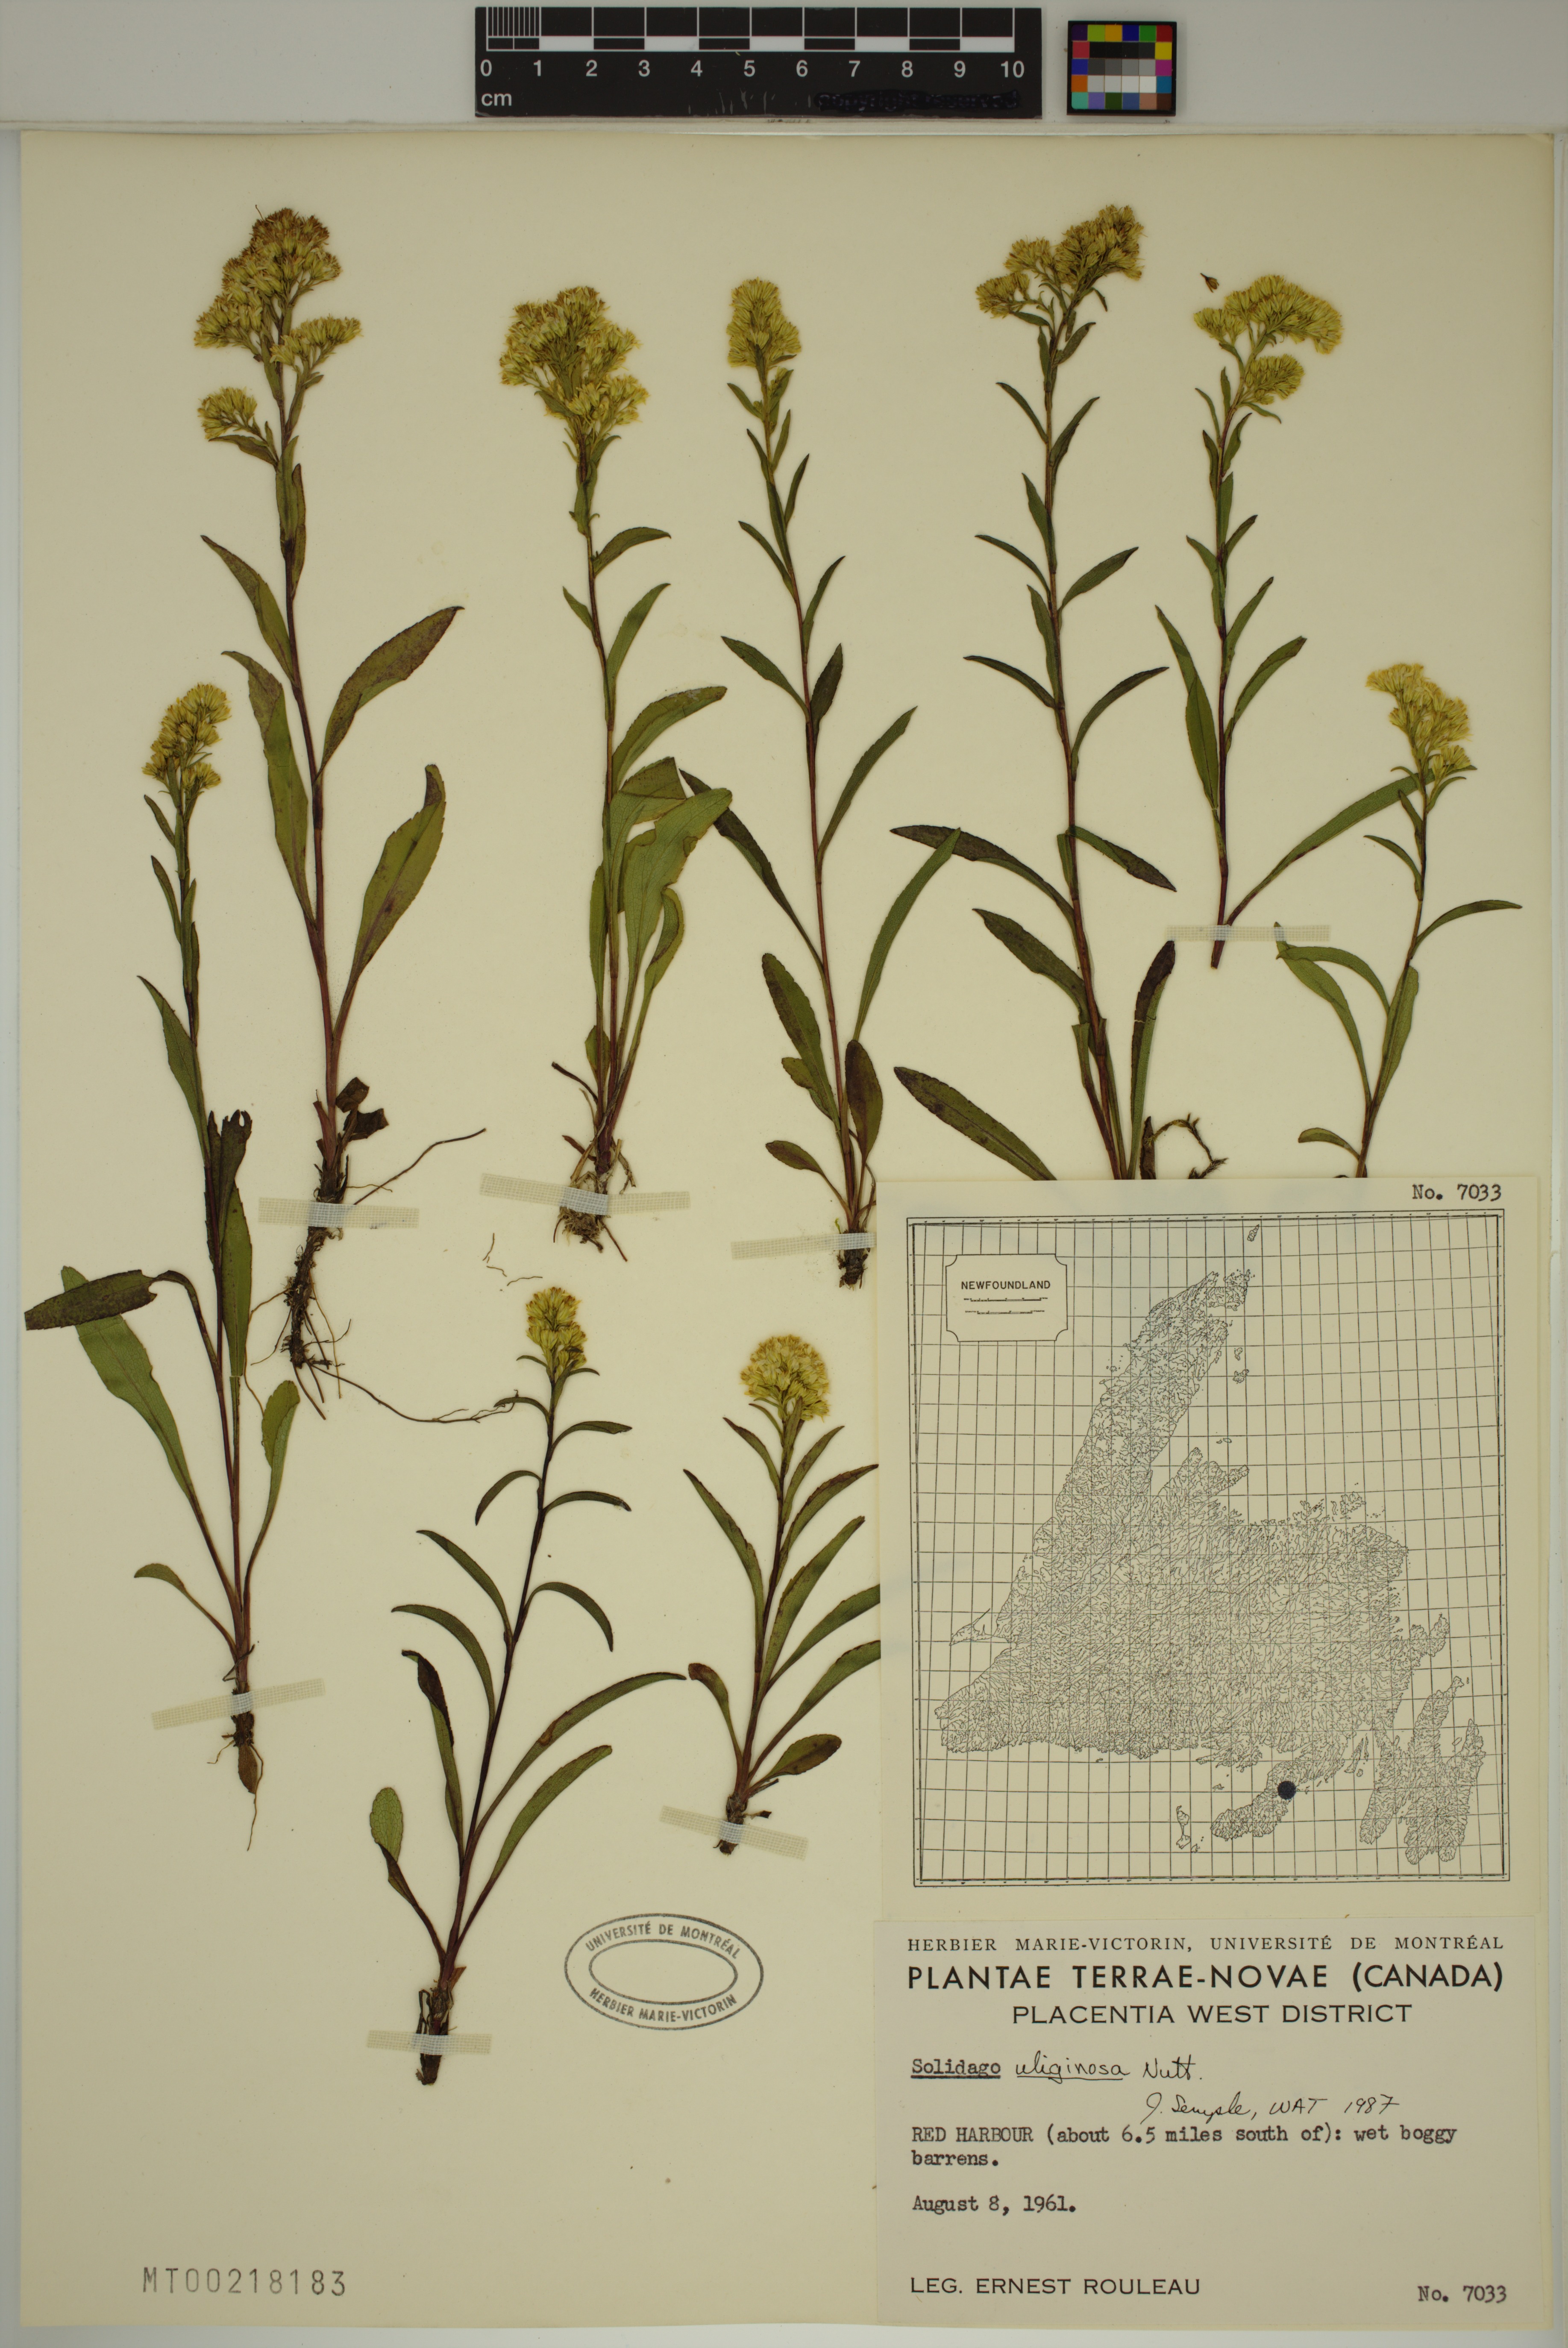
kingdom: Plantae
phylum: Tracheophyta
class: Magnoliopsida
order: Asterales
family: Asteraceae
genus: Solidago
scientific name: Solidago uliginosa
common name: Bog goldenrod
